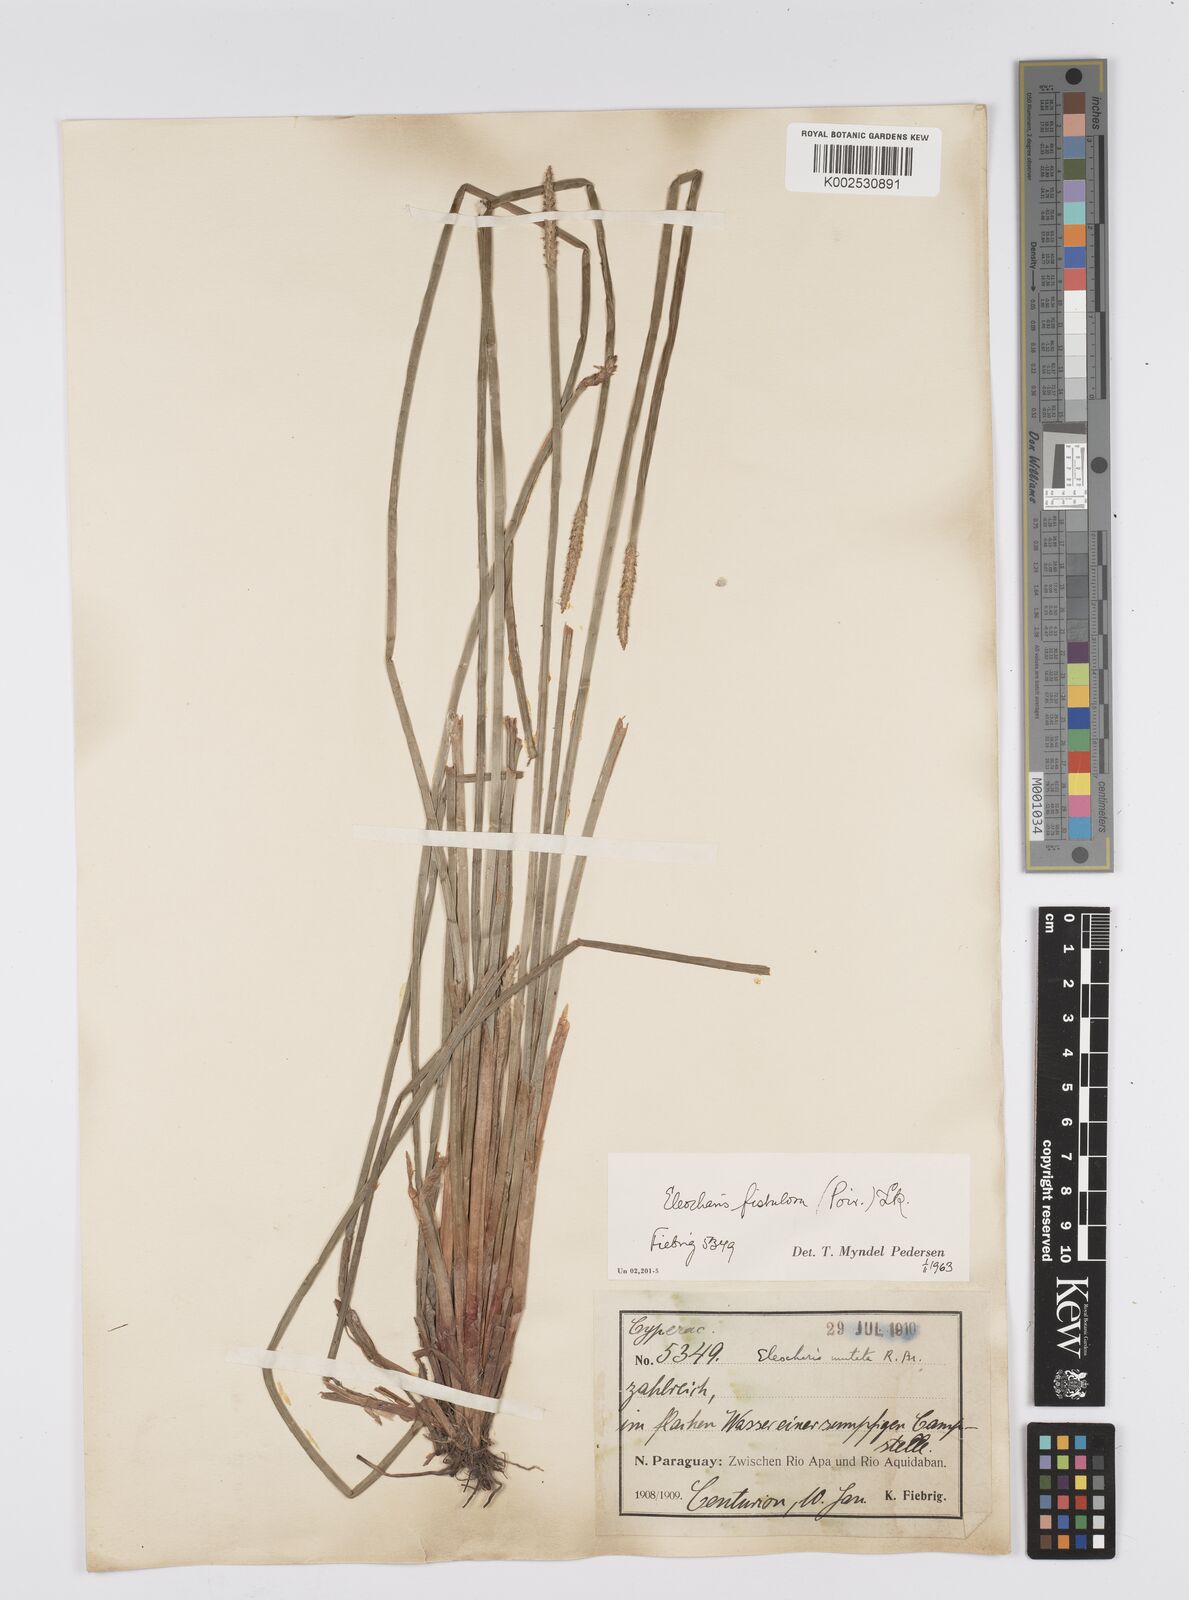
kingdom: Plantae
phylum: Tracheophyta
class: Liliopsida
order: Poales
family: Cyperaceae
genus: Eleocharis
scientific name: Eleocharis acutangula
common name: Acute spikerush
